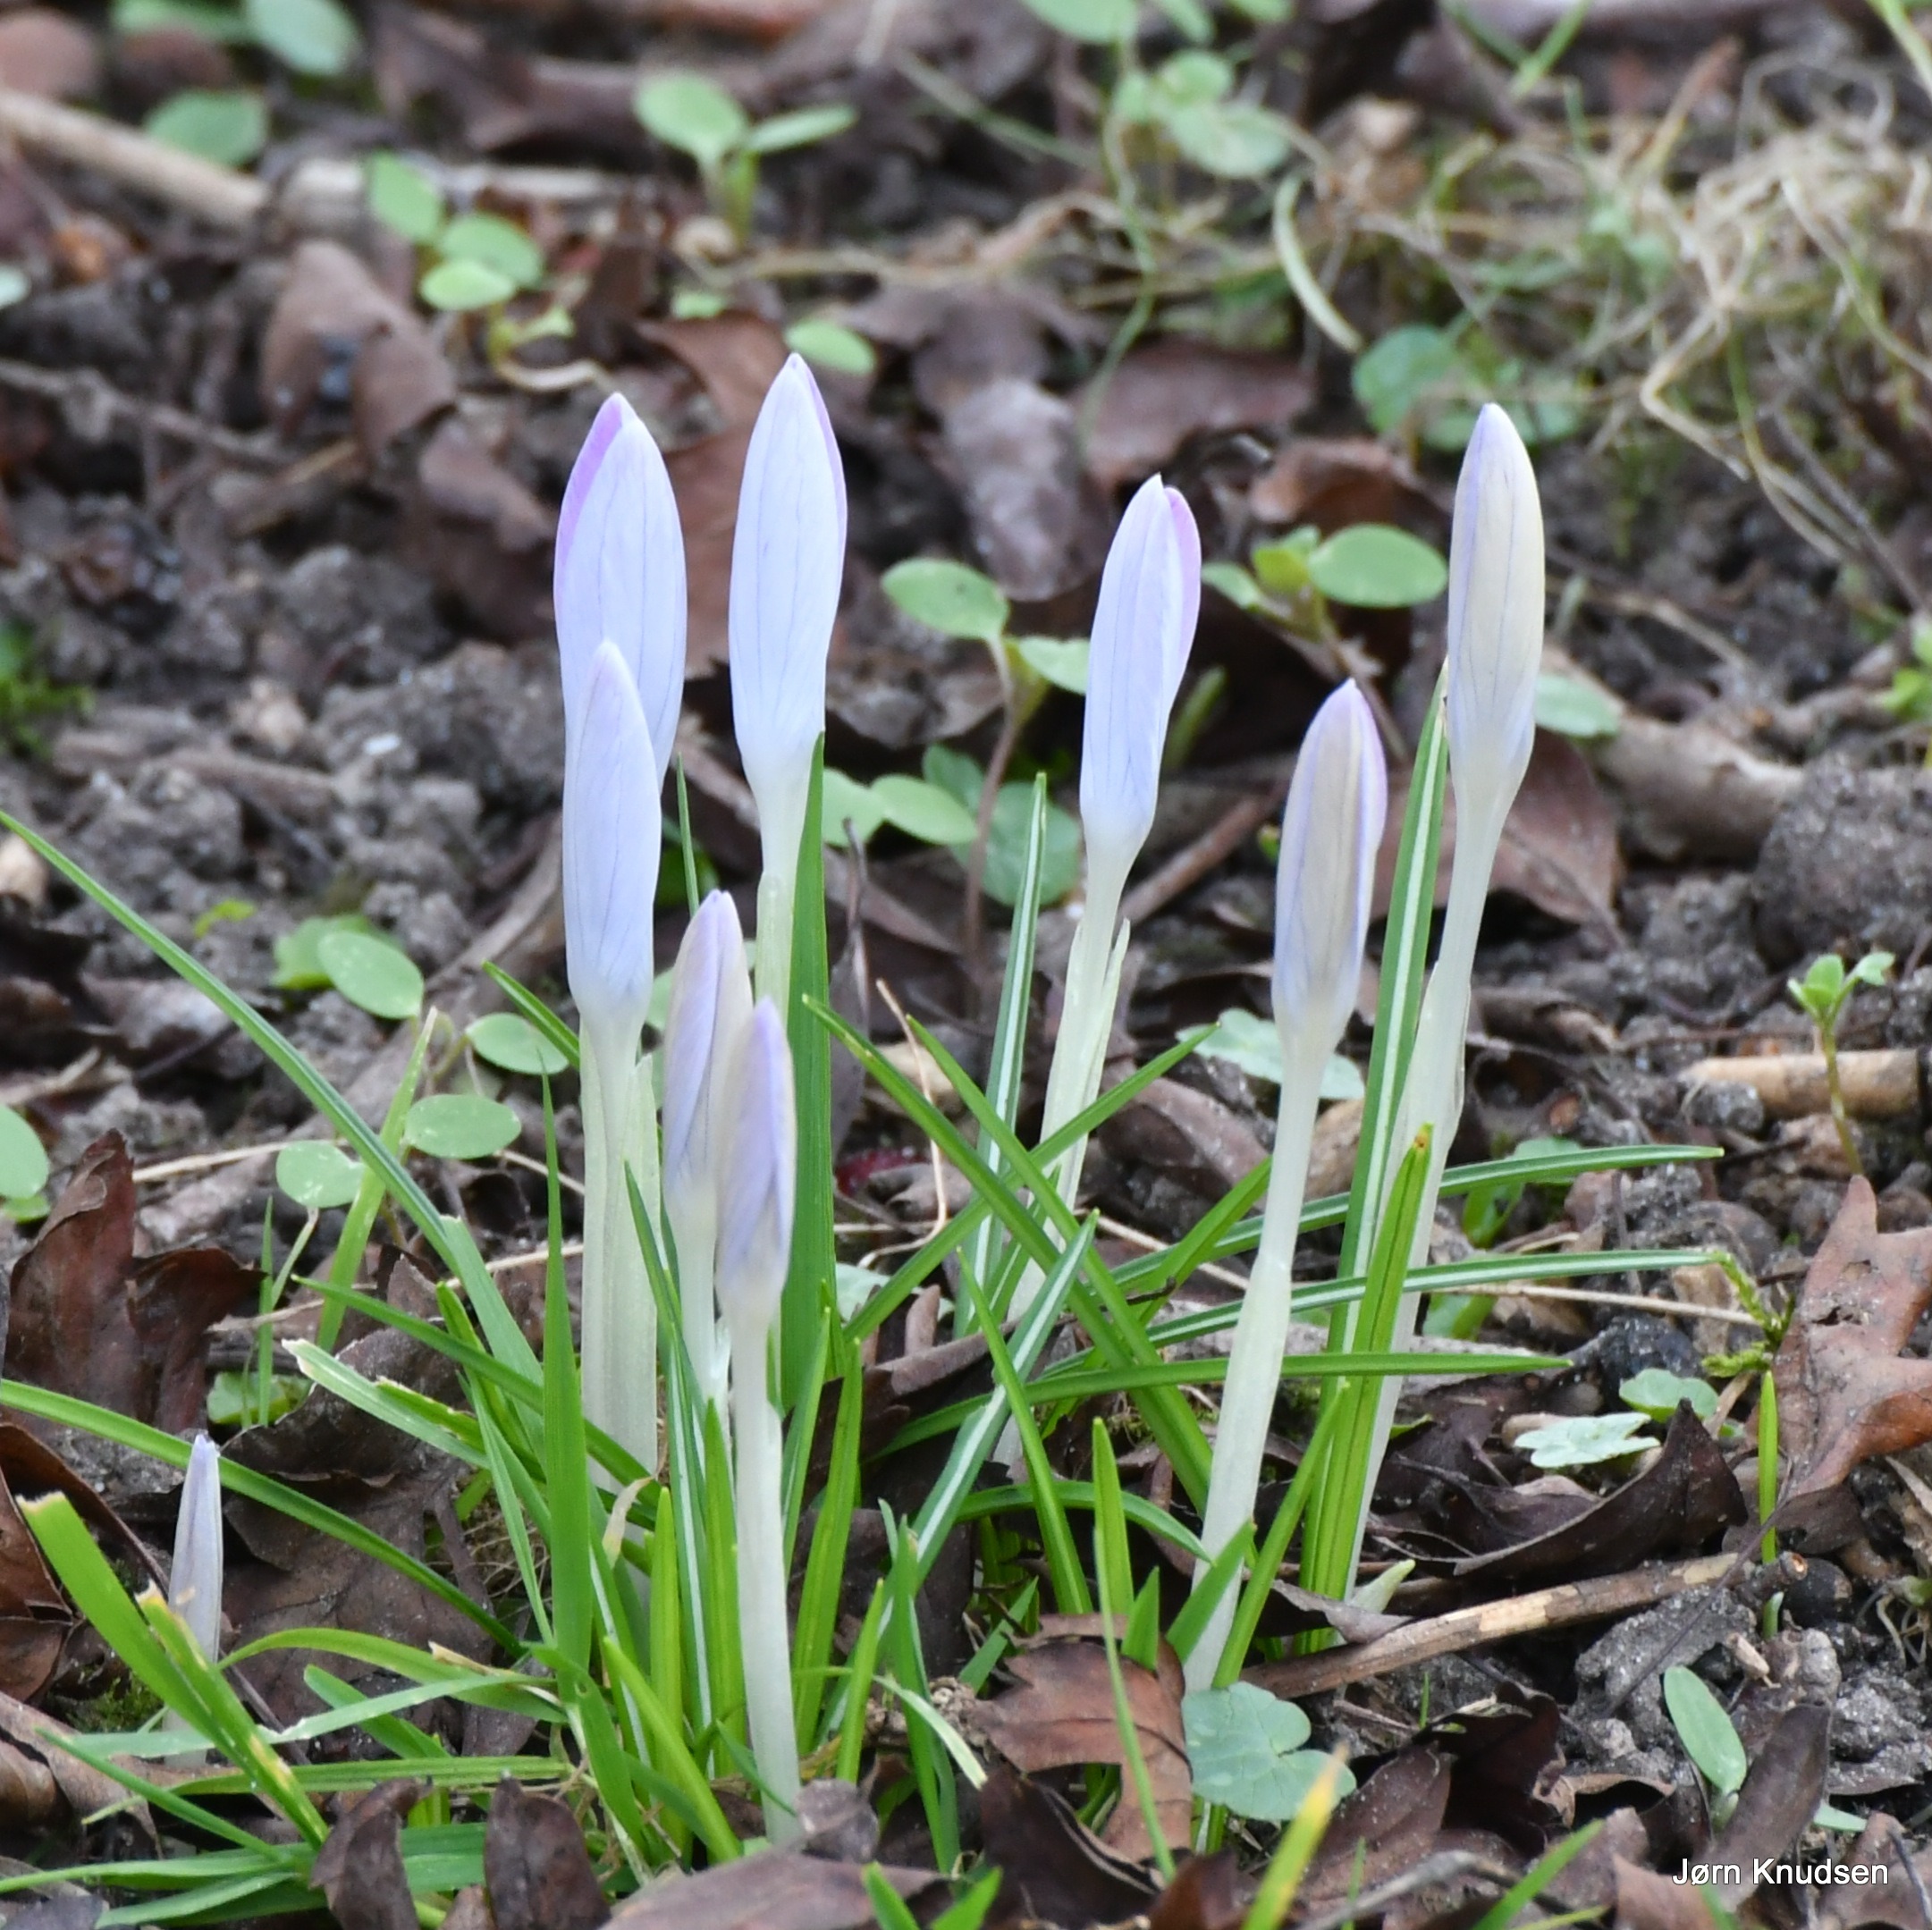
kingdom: Plantae
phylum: Tracheophyta
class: Liliopsida
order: Asparagales
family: Iridaceae
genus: Crocus
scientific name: Crocus tommasinianus
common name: Sne-krokus
